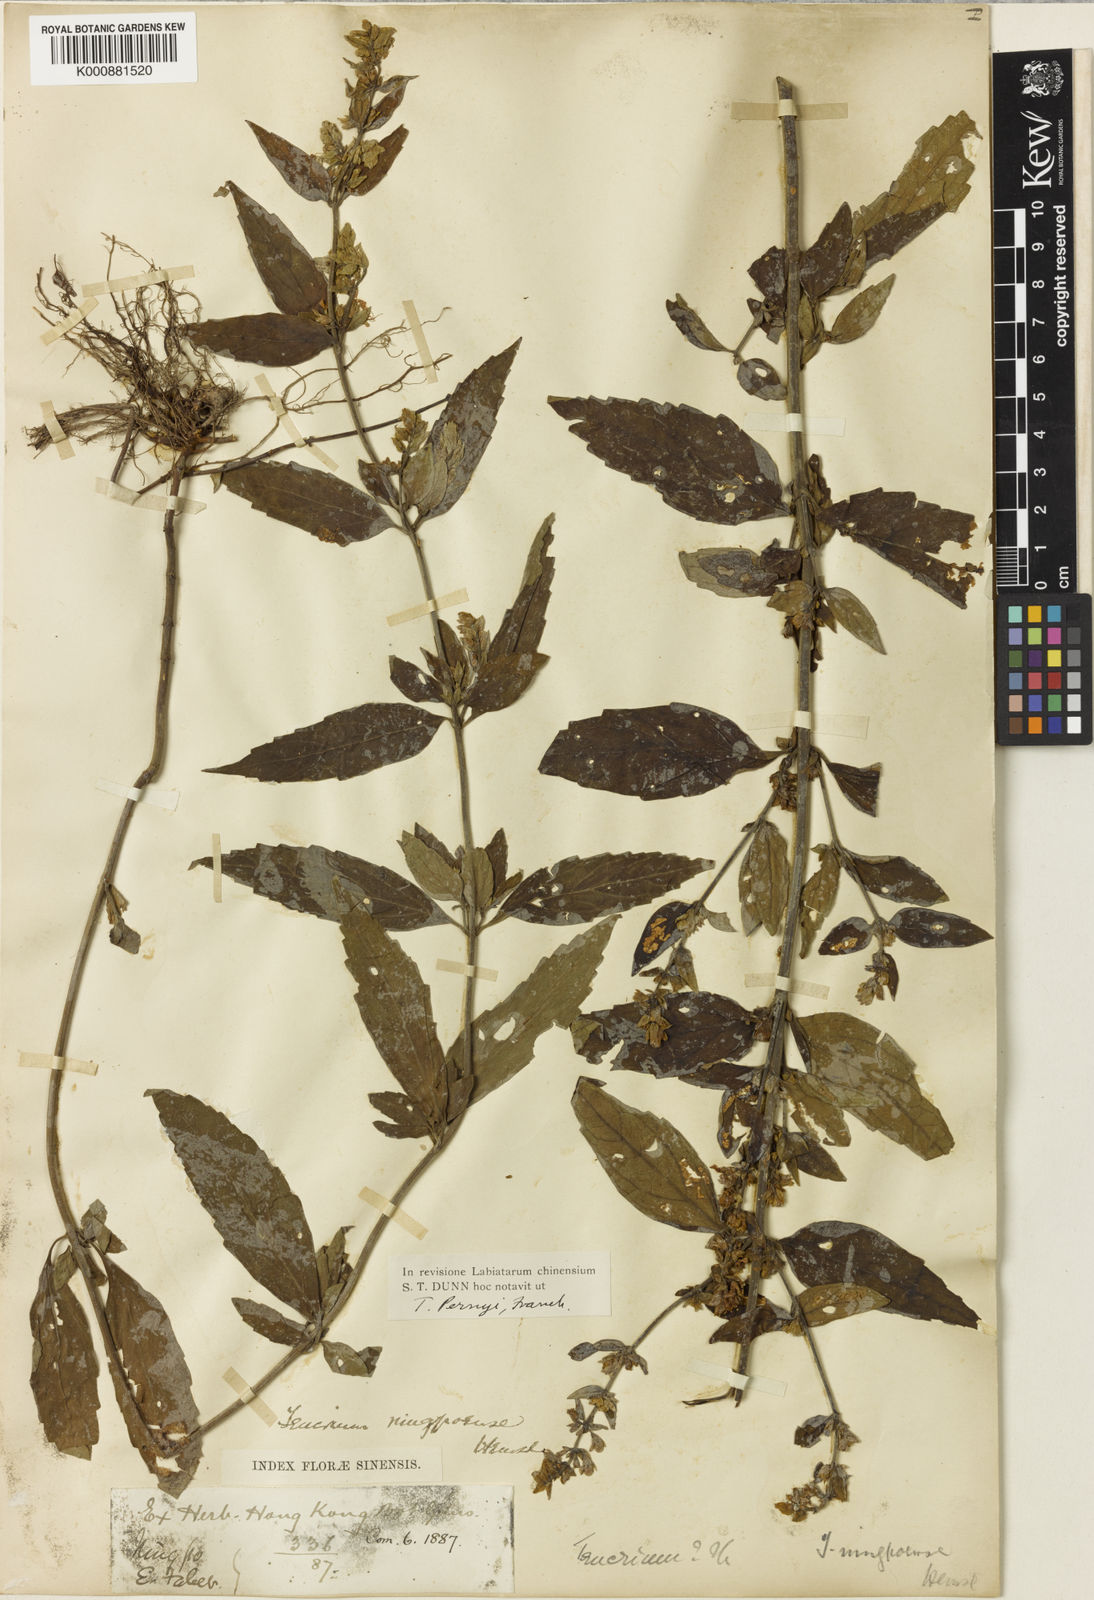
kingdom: Plantae
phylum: Tracheophyta
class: Magnoliopsida
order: Lamiales
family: Lamiaceae
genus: Teucrium
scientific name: Teucrium pernyi
